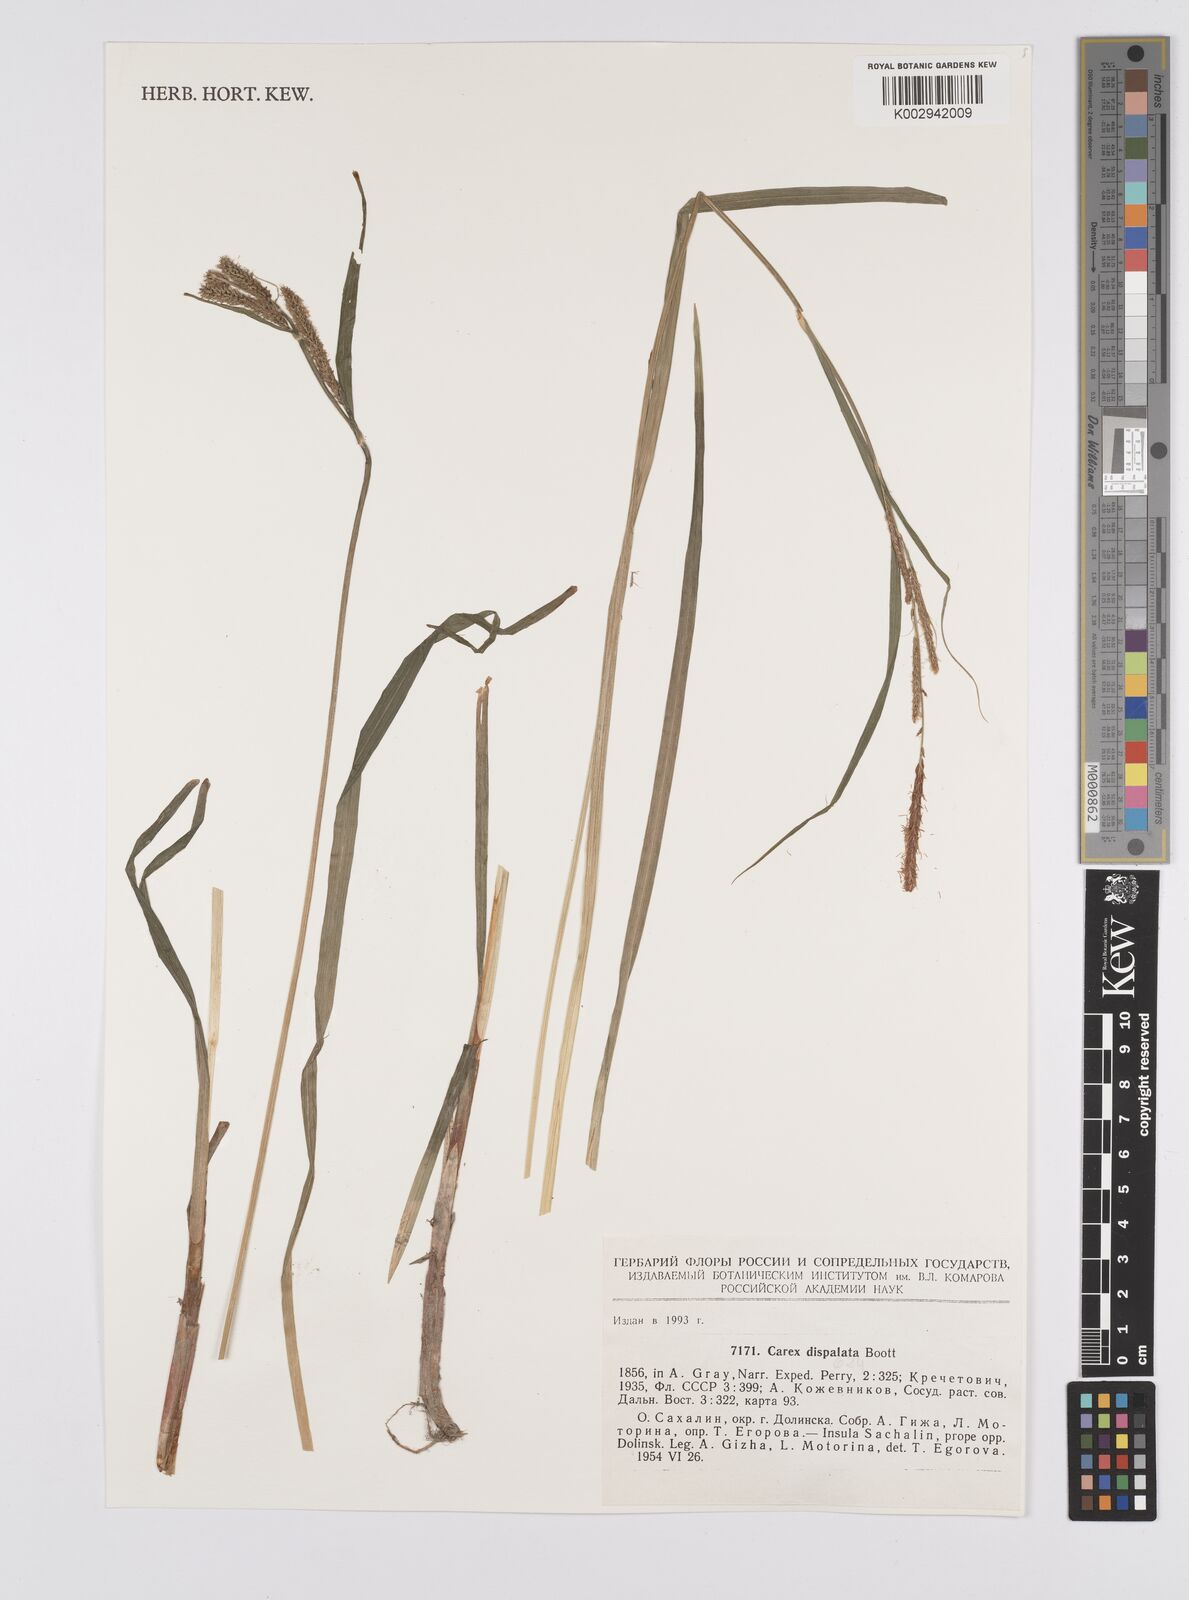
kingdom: Plantae
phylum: Tracheophyta
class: Liliopsida
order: Poales
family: Cyperaceae
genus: Carex
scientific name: Carex dispalata
